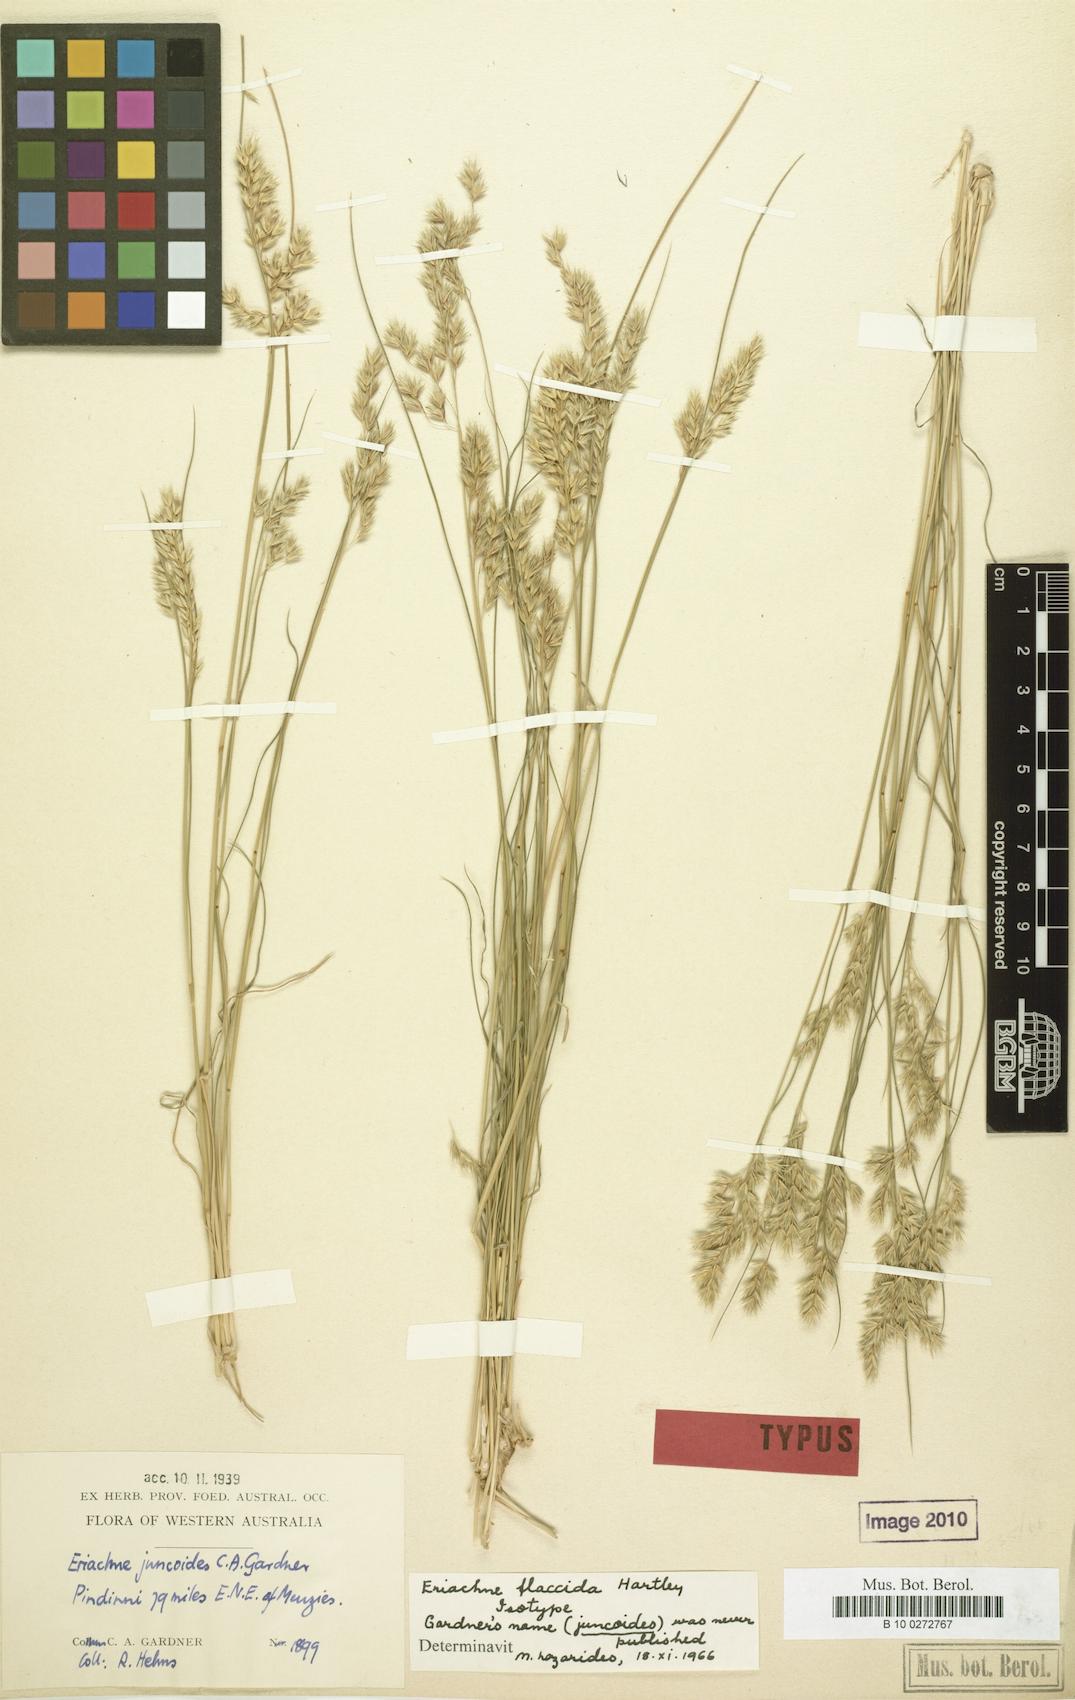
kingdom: Plantae
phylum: Tracheophyta
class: Liliopsida
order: Poales
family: Poaceae
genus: Eriachne
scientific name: Eriachne flaccida
